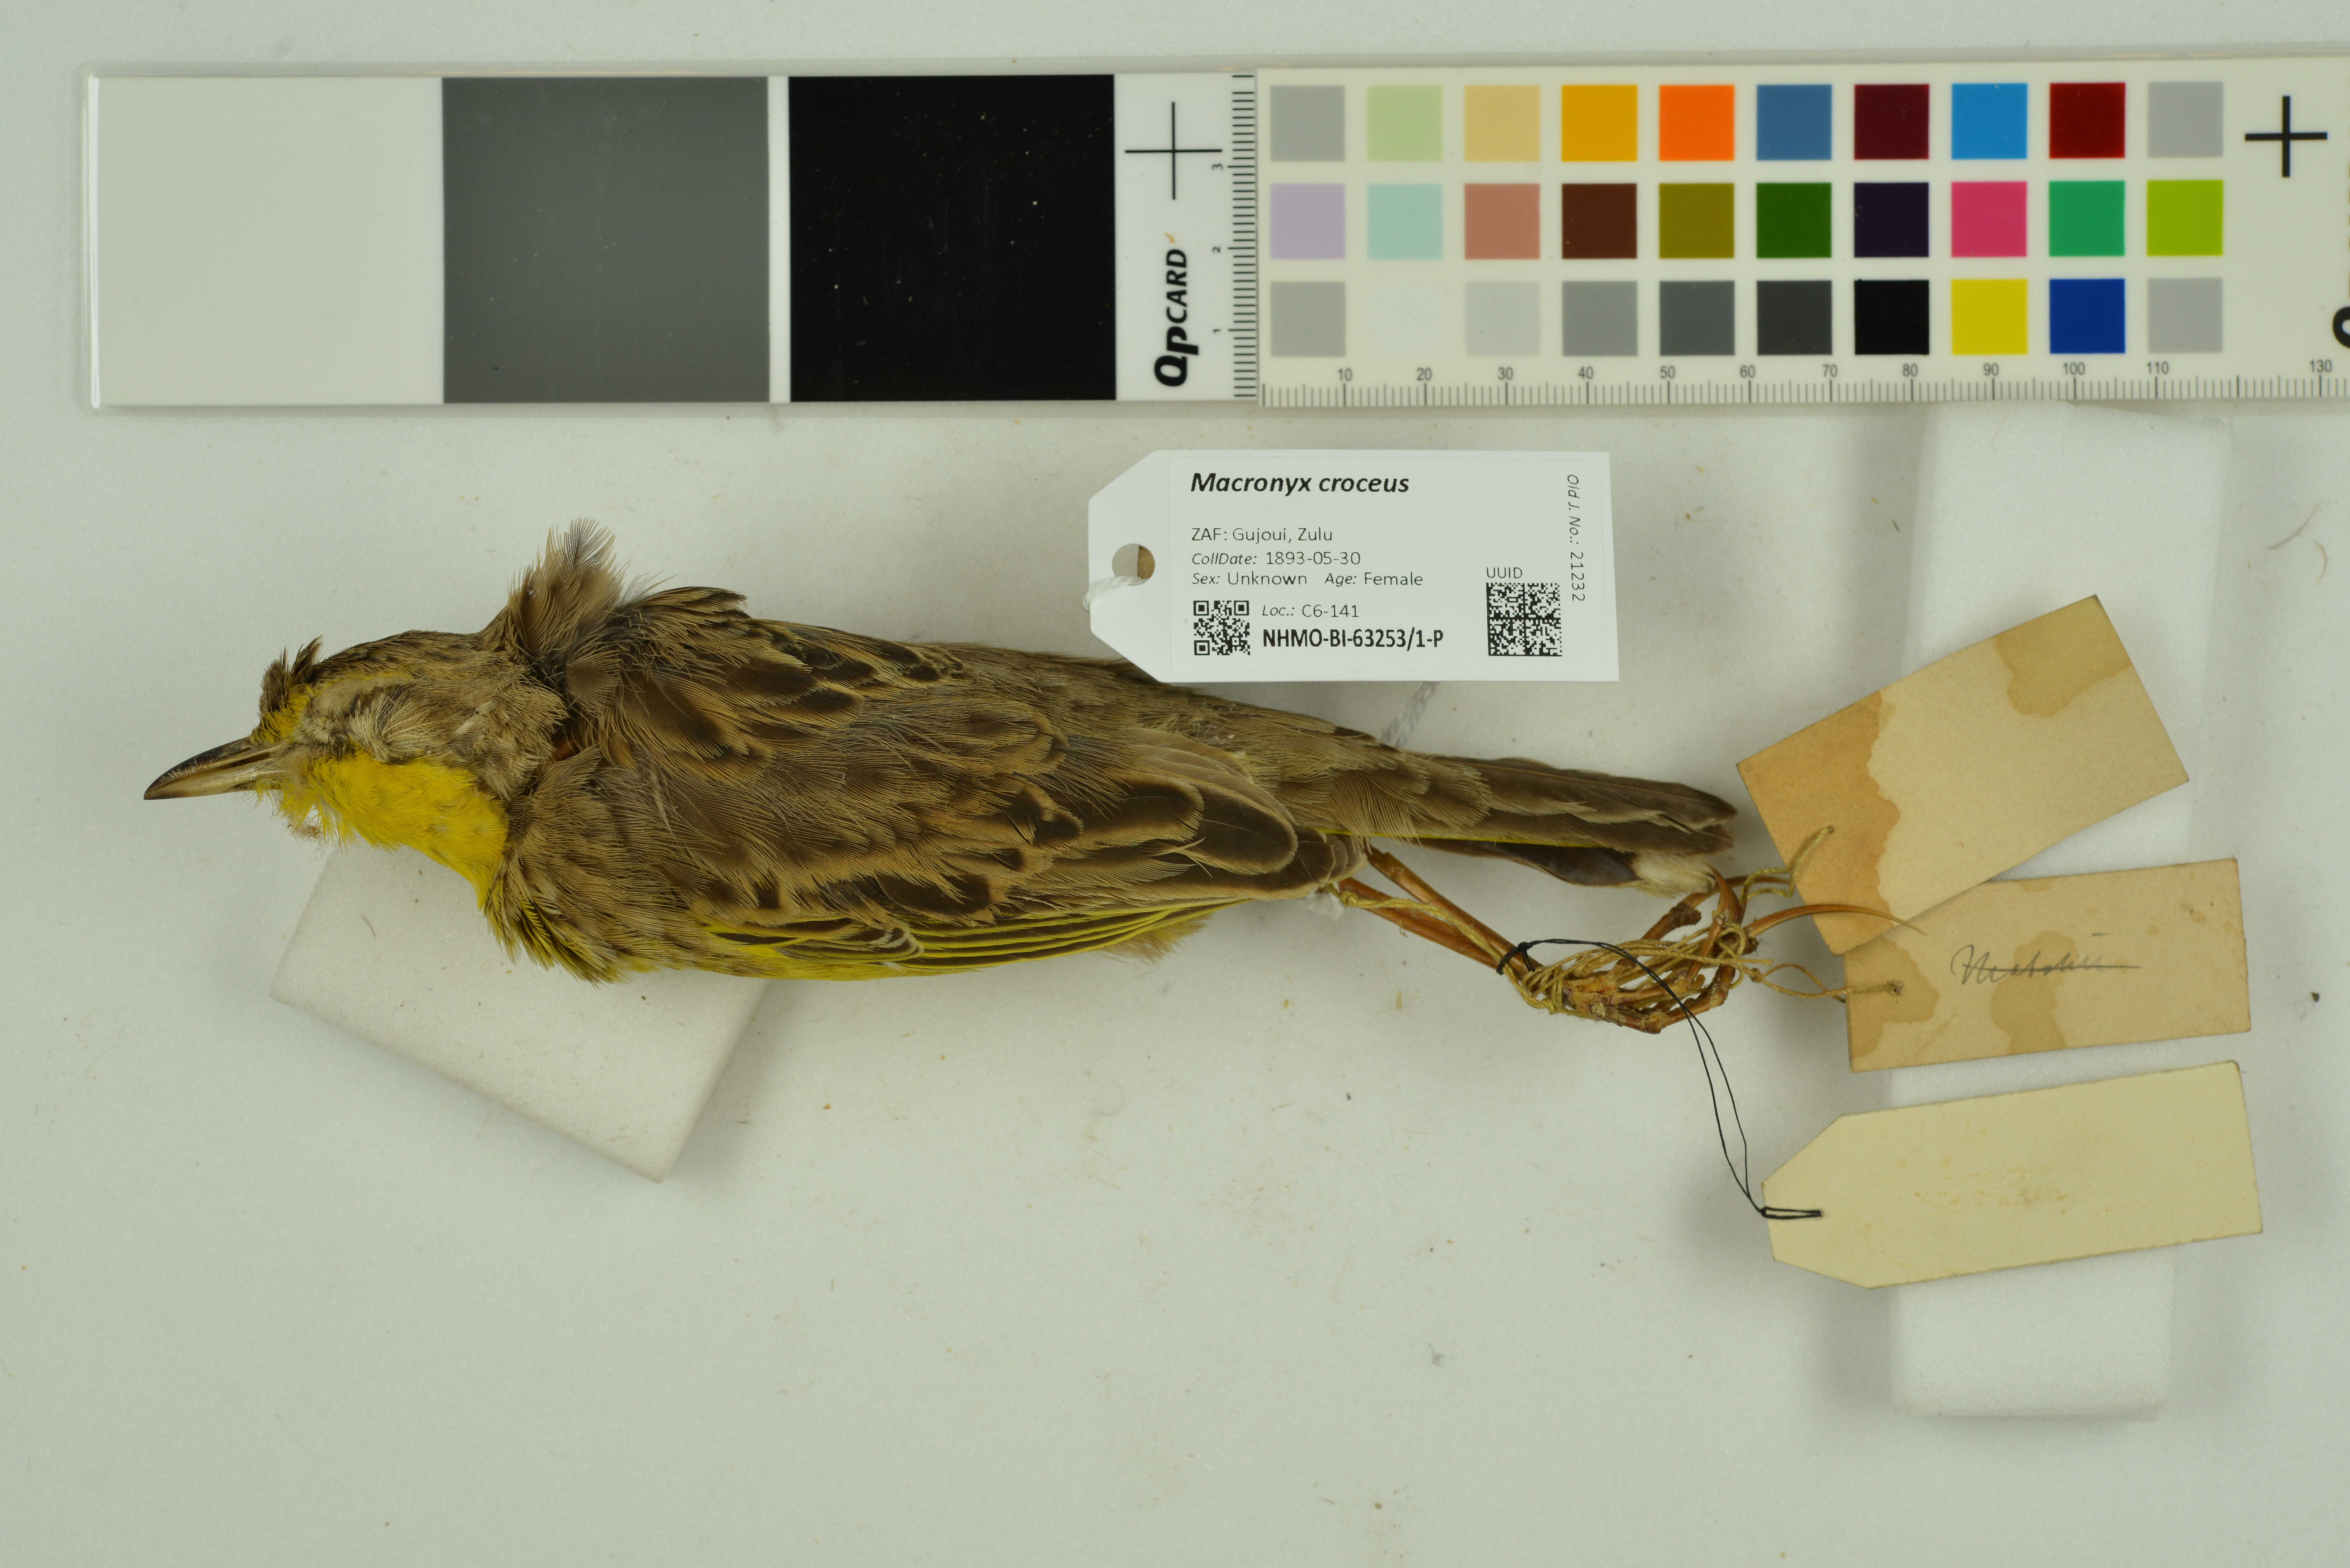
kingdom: Animalia
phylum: Chordata
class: Aves
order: Passeriformes
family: Motacillidae
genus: Macronyx
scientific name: Macronyx croceus
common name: Yellow-throated longclaw
